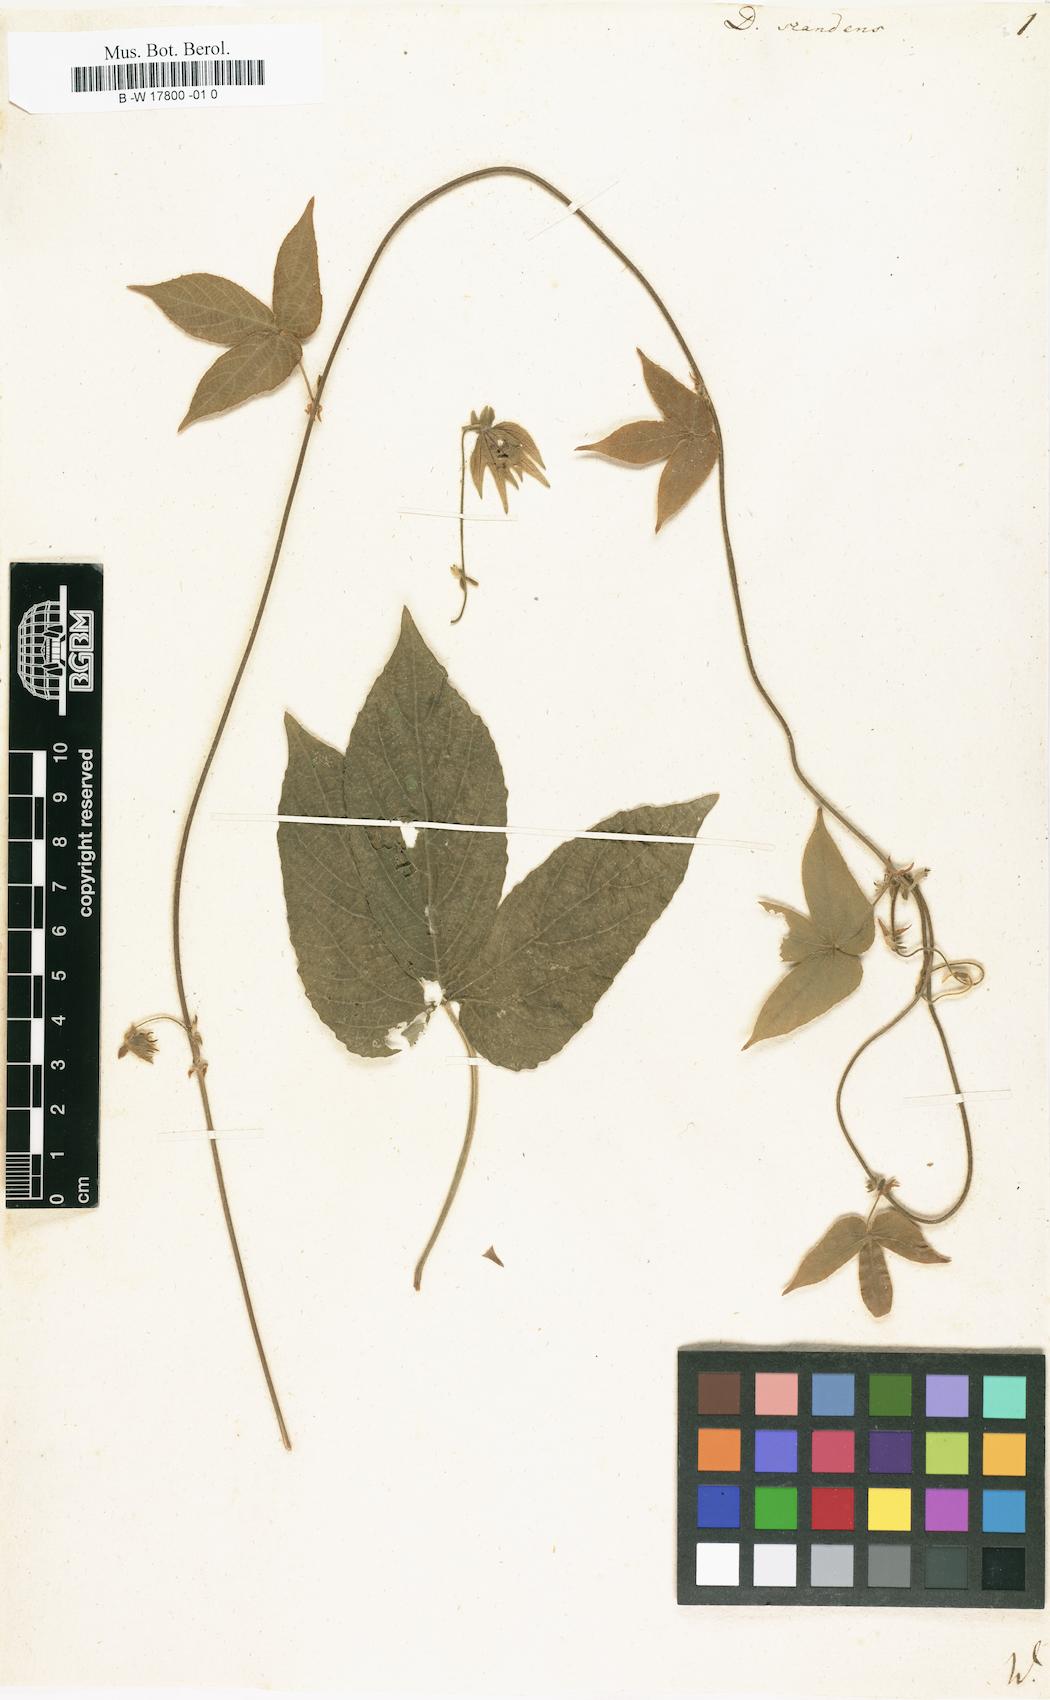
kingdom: Plantae
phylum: Tracheophyta
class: Magnoliopsida
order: Malpighiales
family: Euphorbiaceae
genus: Dalechampia
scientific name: Dalechampia scandens
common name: Spurgecreeper
